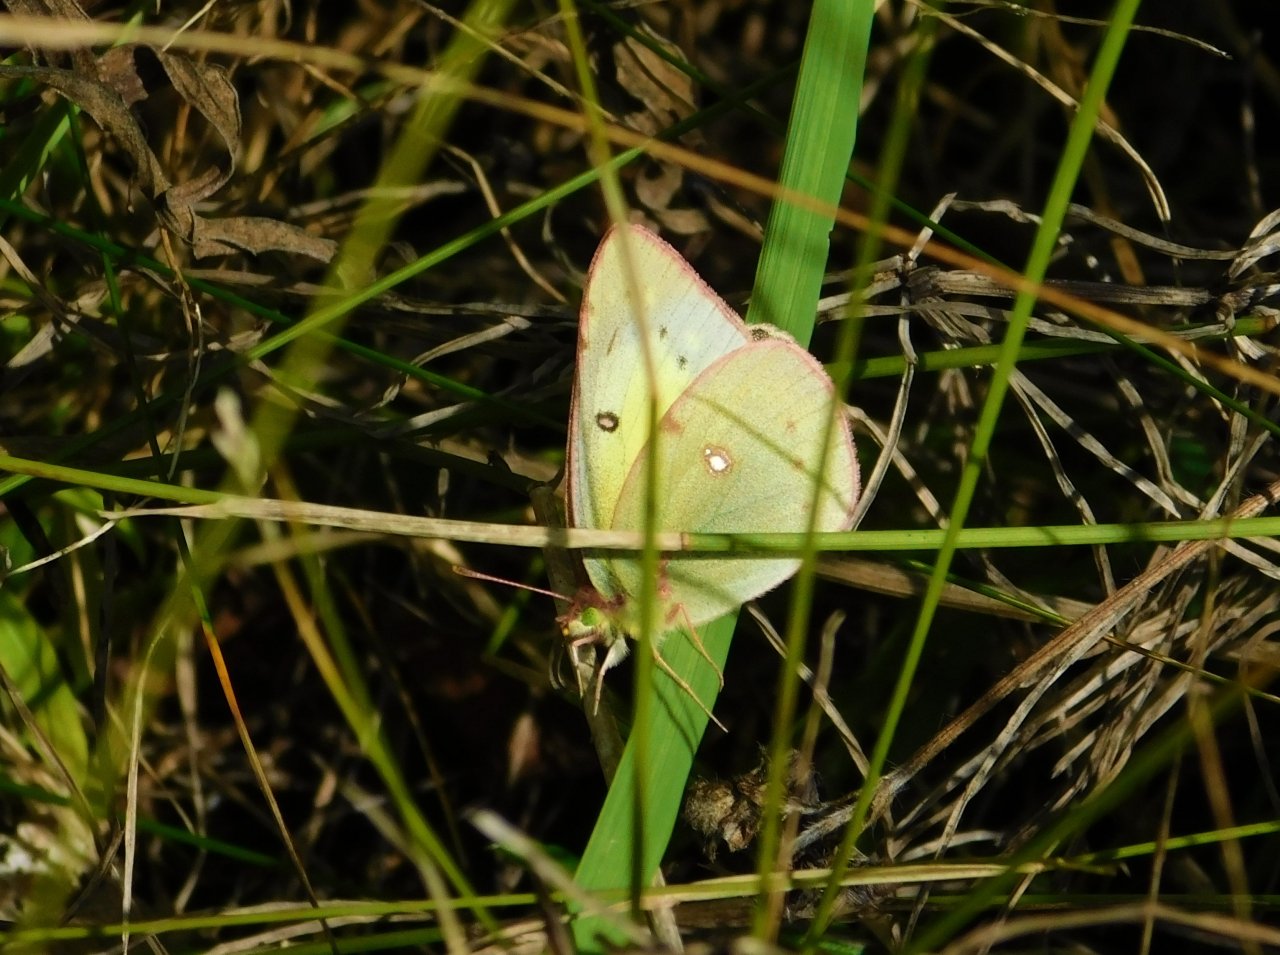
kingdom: Animalia
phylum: Arthropoda
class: Insecta
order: Lepidoptera
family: Pieridae
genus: Colias
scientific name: Colias philodice
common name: Clouded Sulphur
